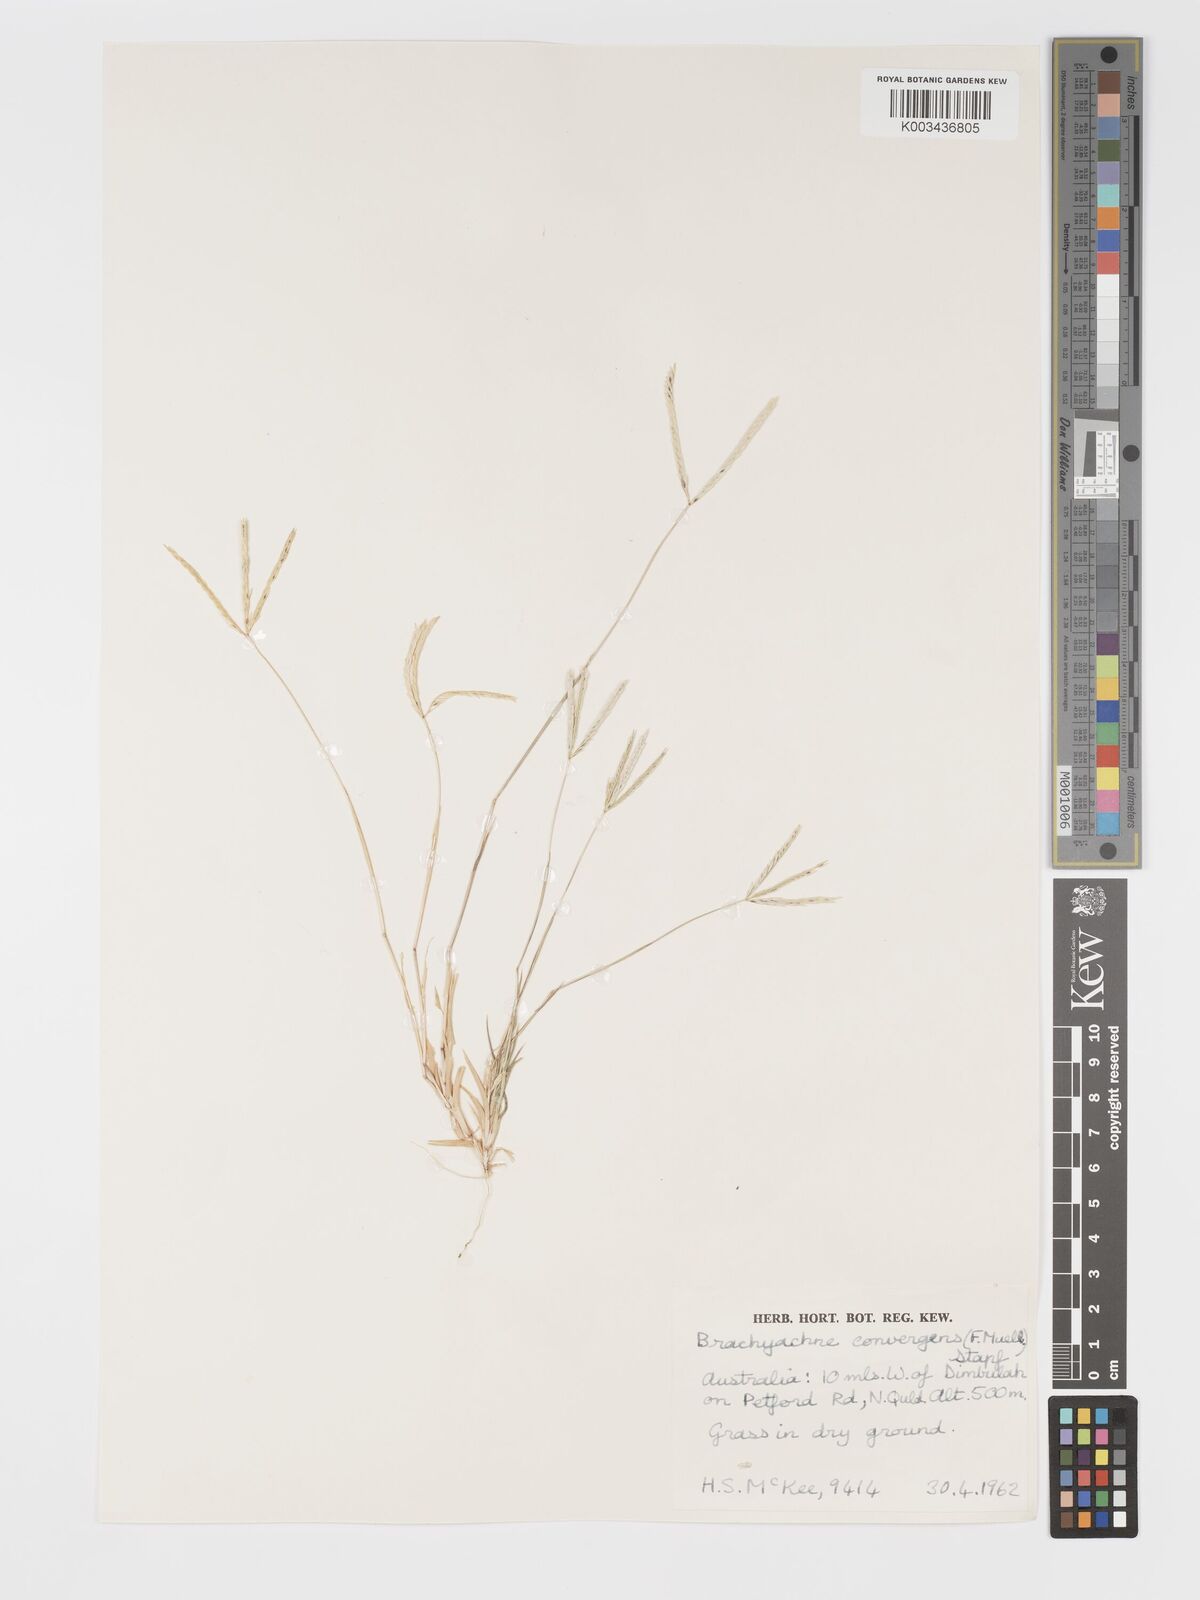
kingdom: Plantae
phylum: Tracheophyta
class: Liliopsida
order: Poales
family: Poaceae
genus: Cynodon
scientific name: Cynodon convergens
